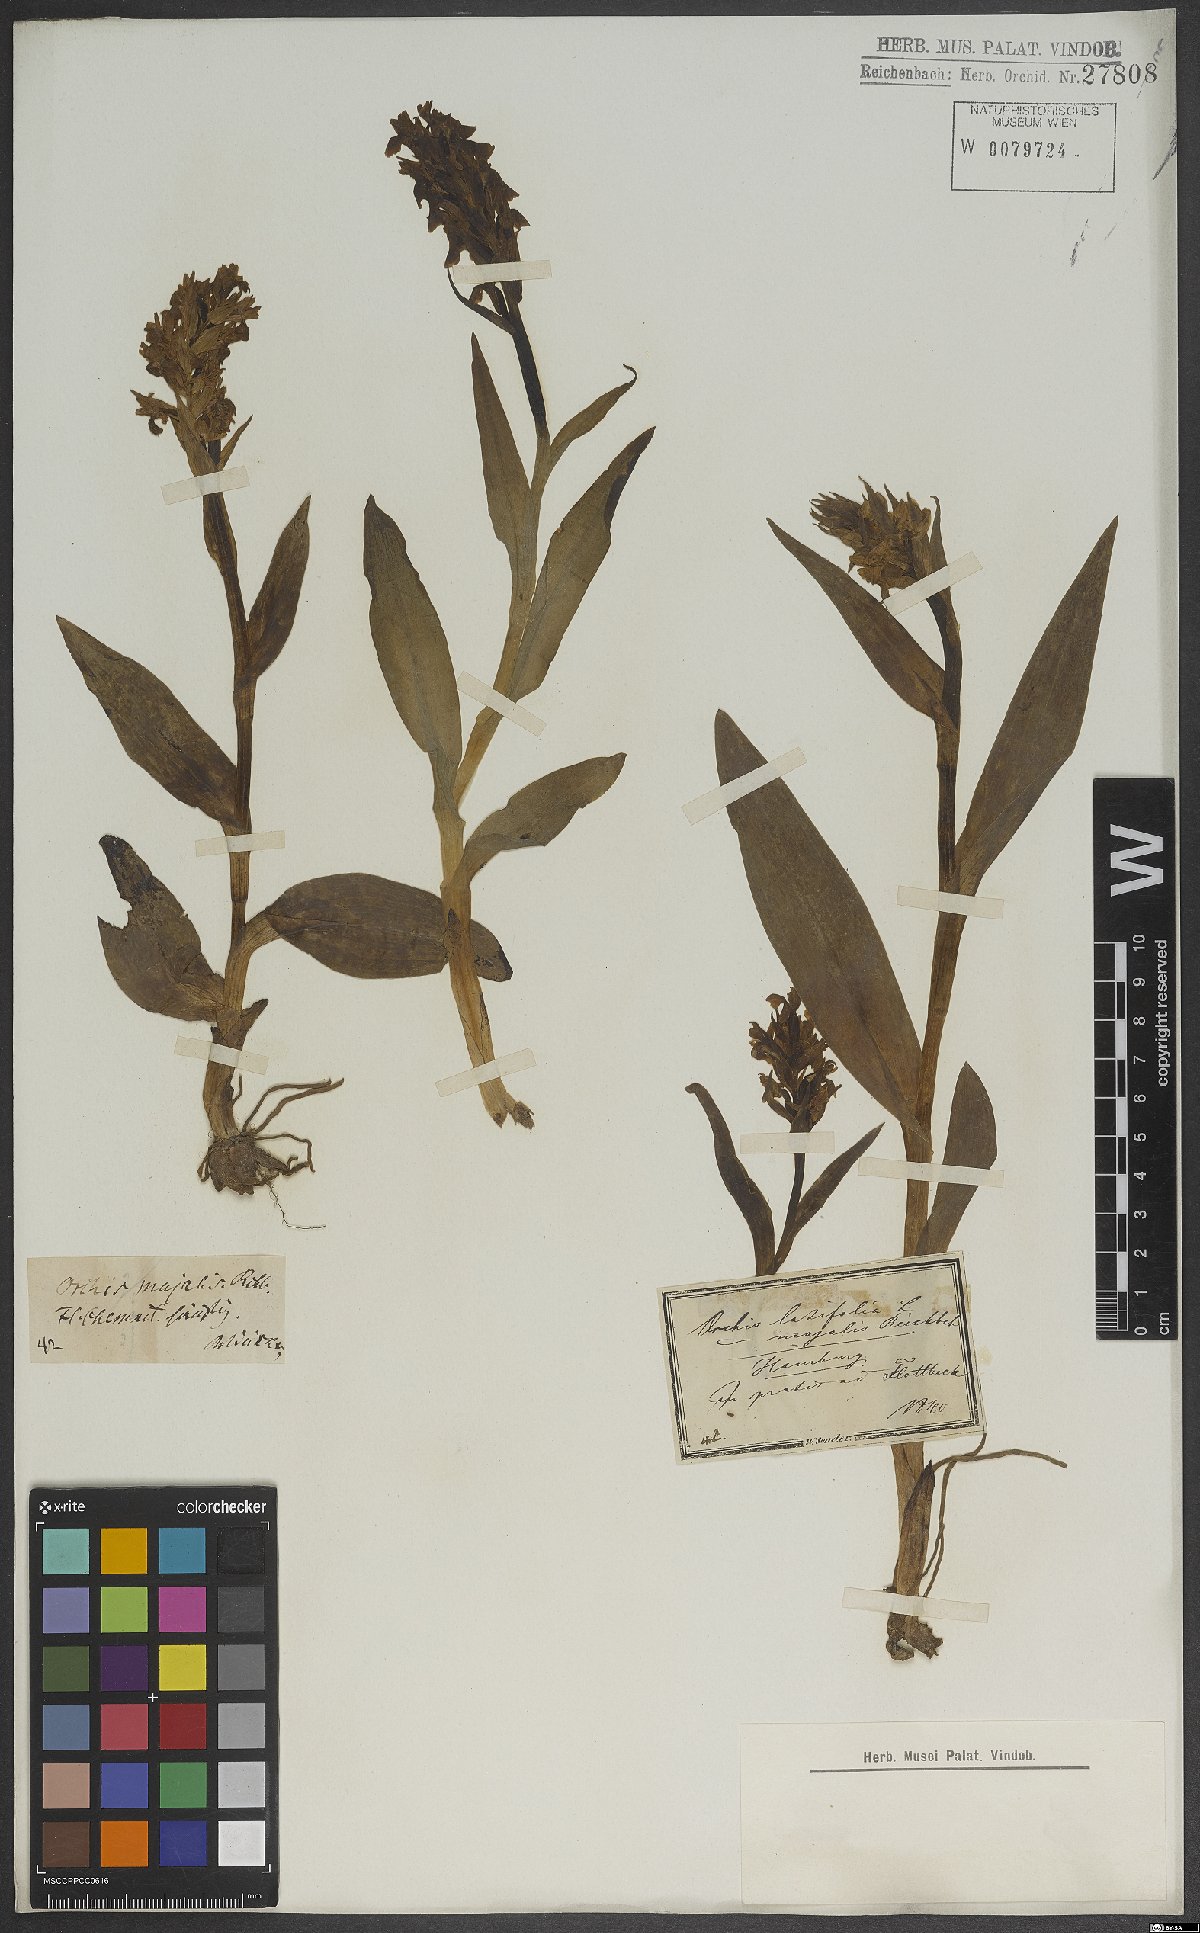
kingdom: Plantae
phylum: Tracheophyta
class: Liliopsida
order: Asparagales
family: Orchidaceae
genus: Dactylorhiza
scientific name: Dactylorhiza majalis
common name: Marsh orchid
